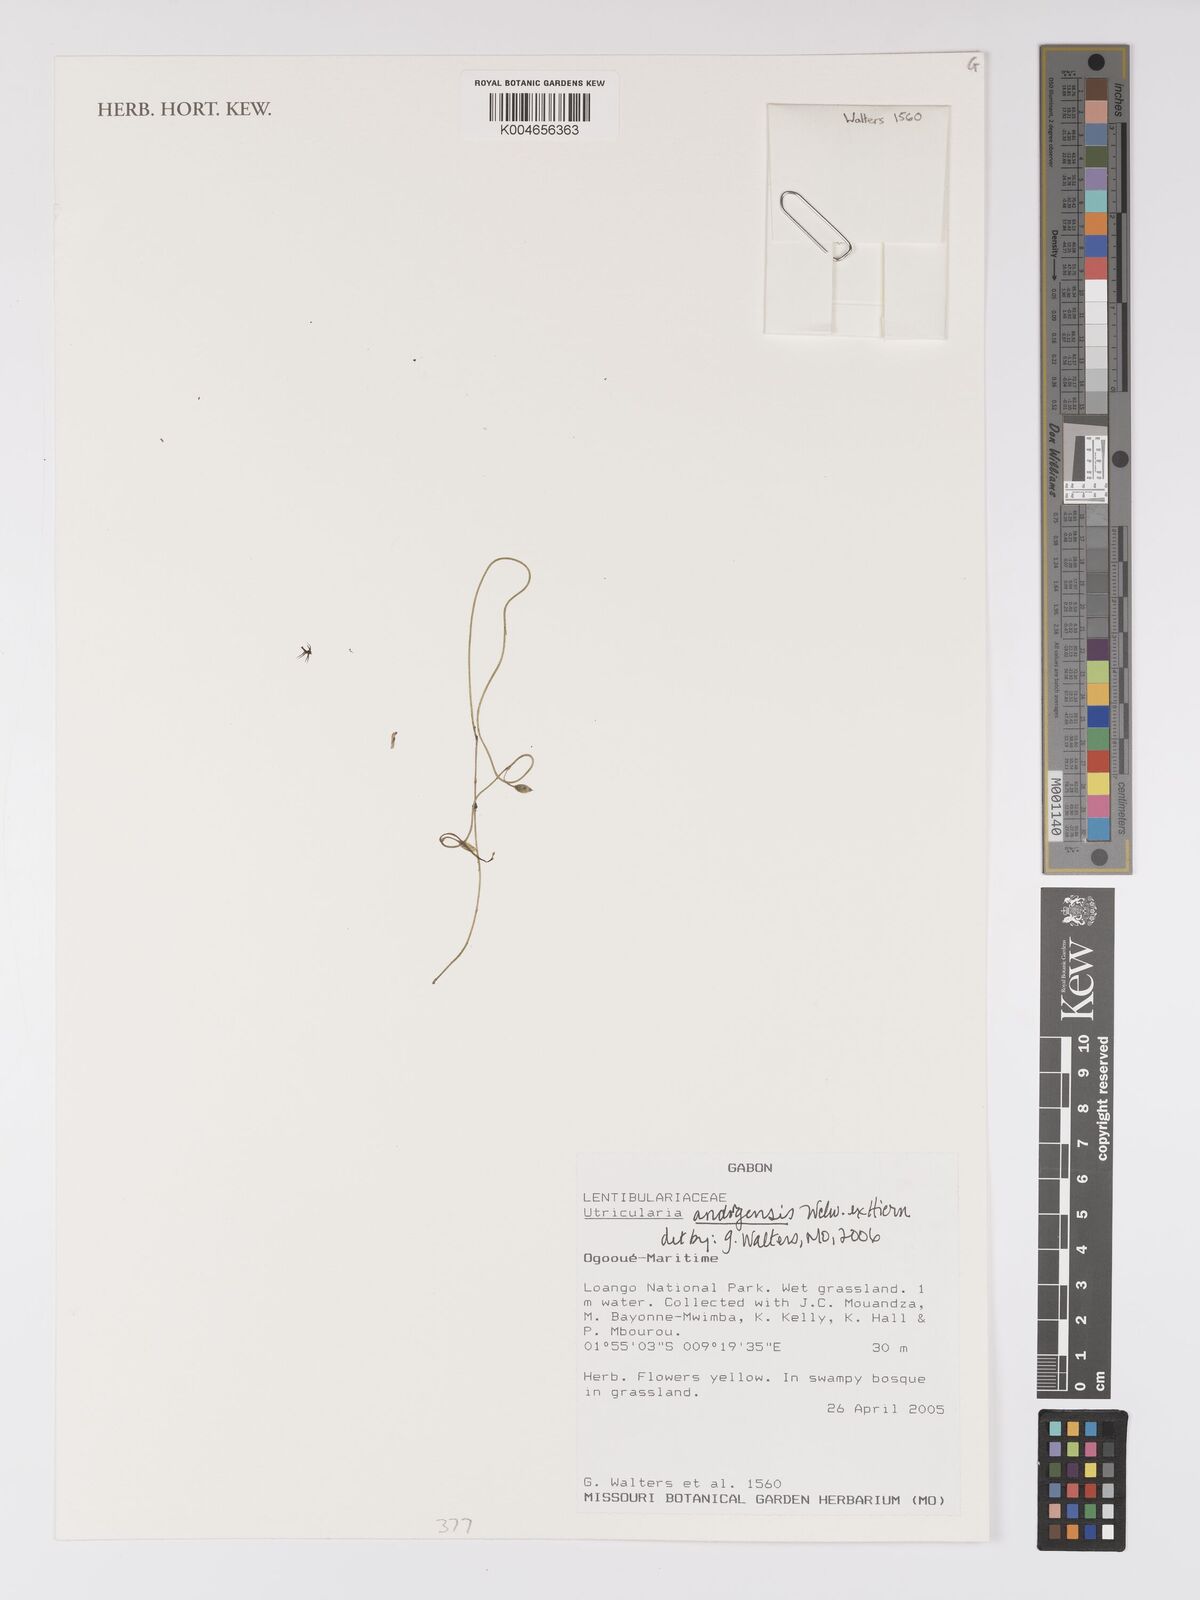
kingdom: Plantae
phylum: Tracheophyta
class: Magnoliopsida
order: Lamiales
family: Lentibulariaceae
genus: Utricularia
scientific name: Utricularia andongensis
